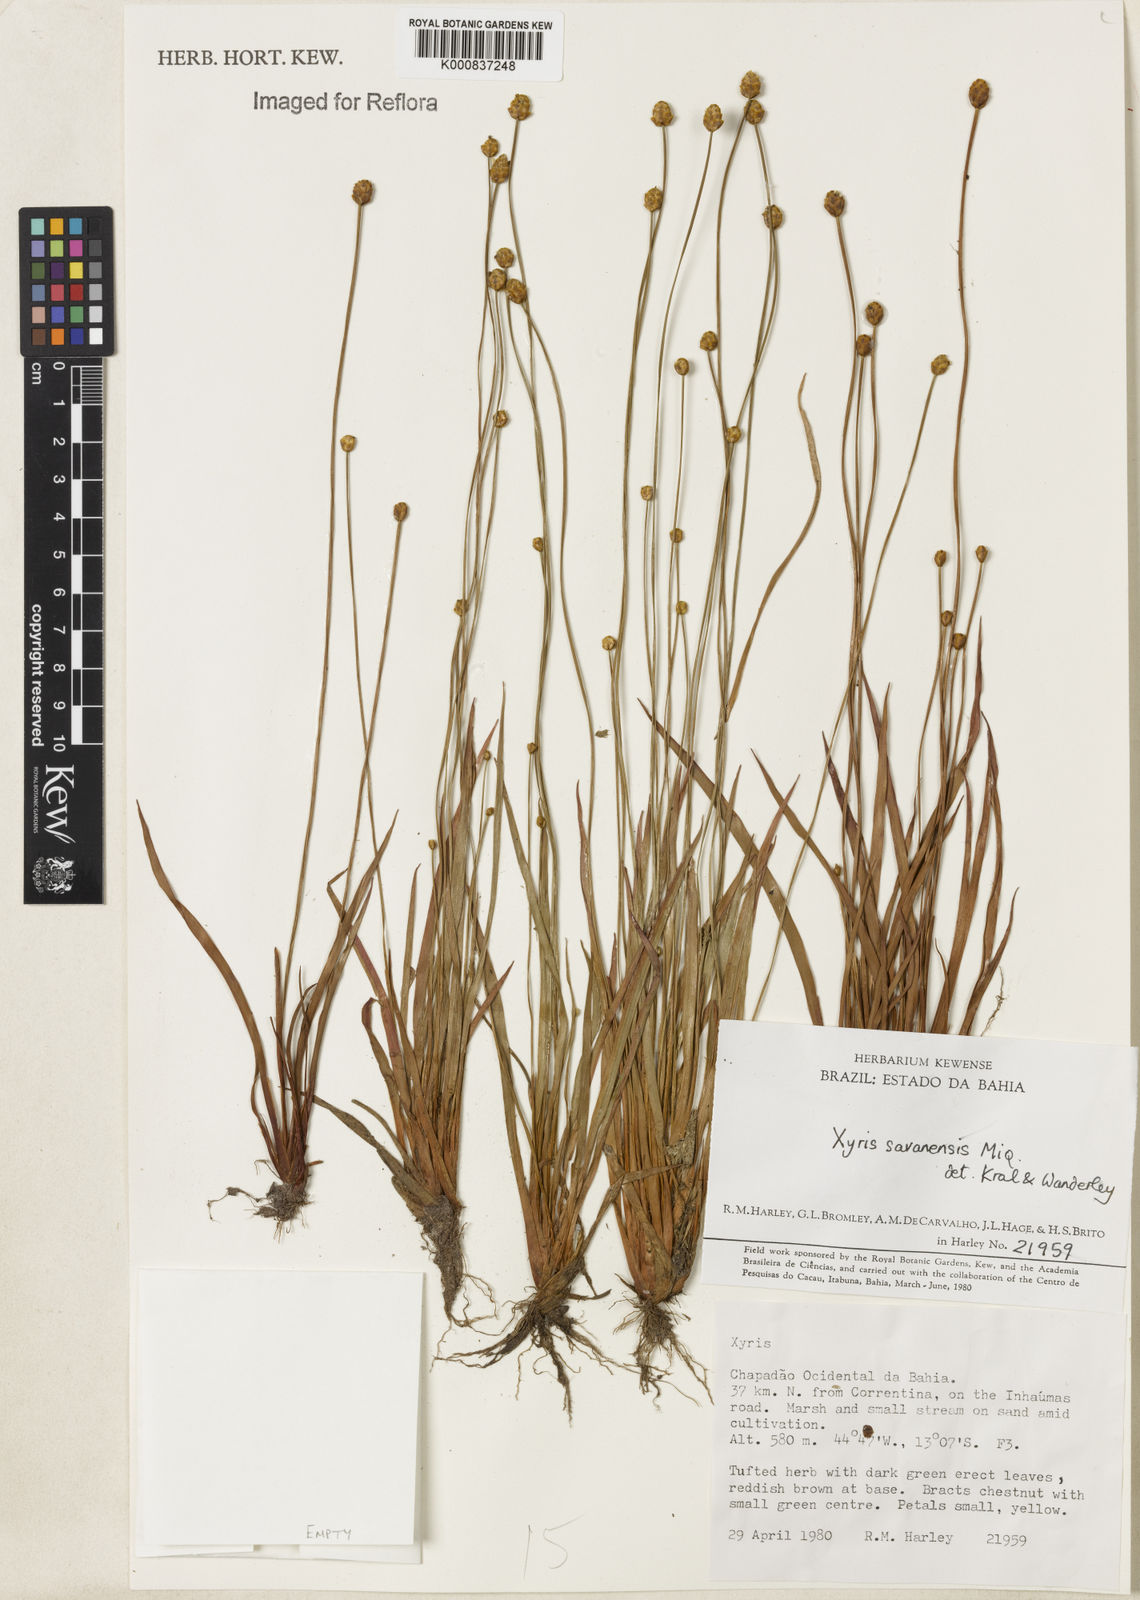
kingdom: Plantae
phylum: Tracheophyta
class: Liliopsida
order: Poales
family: Xyridaceae
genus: Xyris
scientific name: Xyris savanensis
